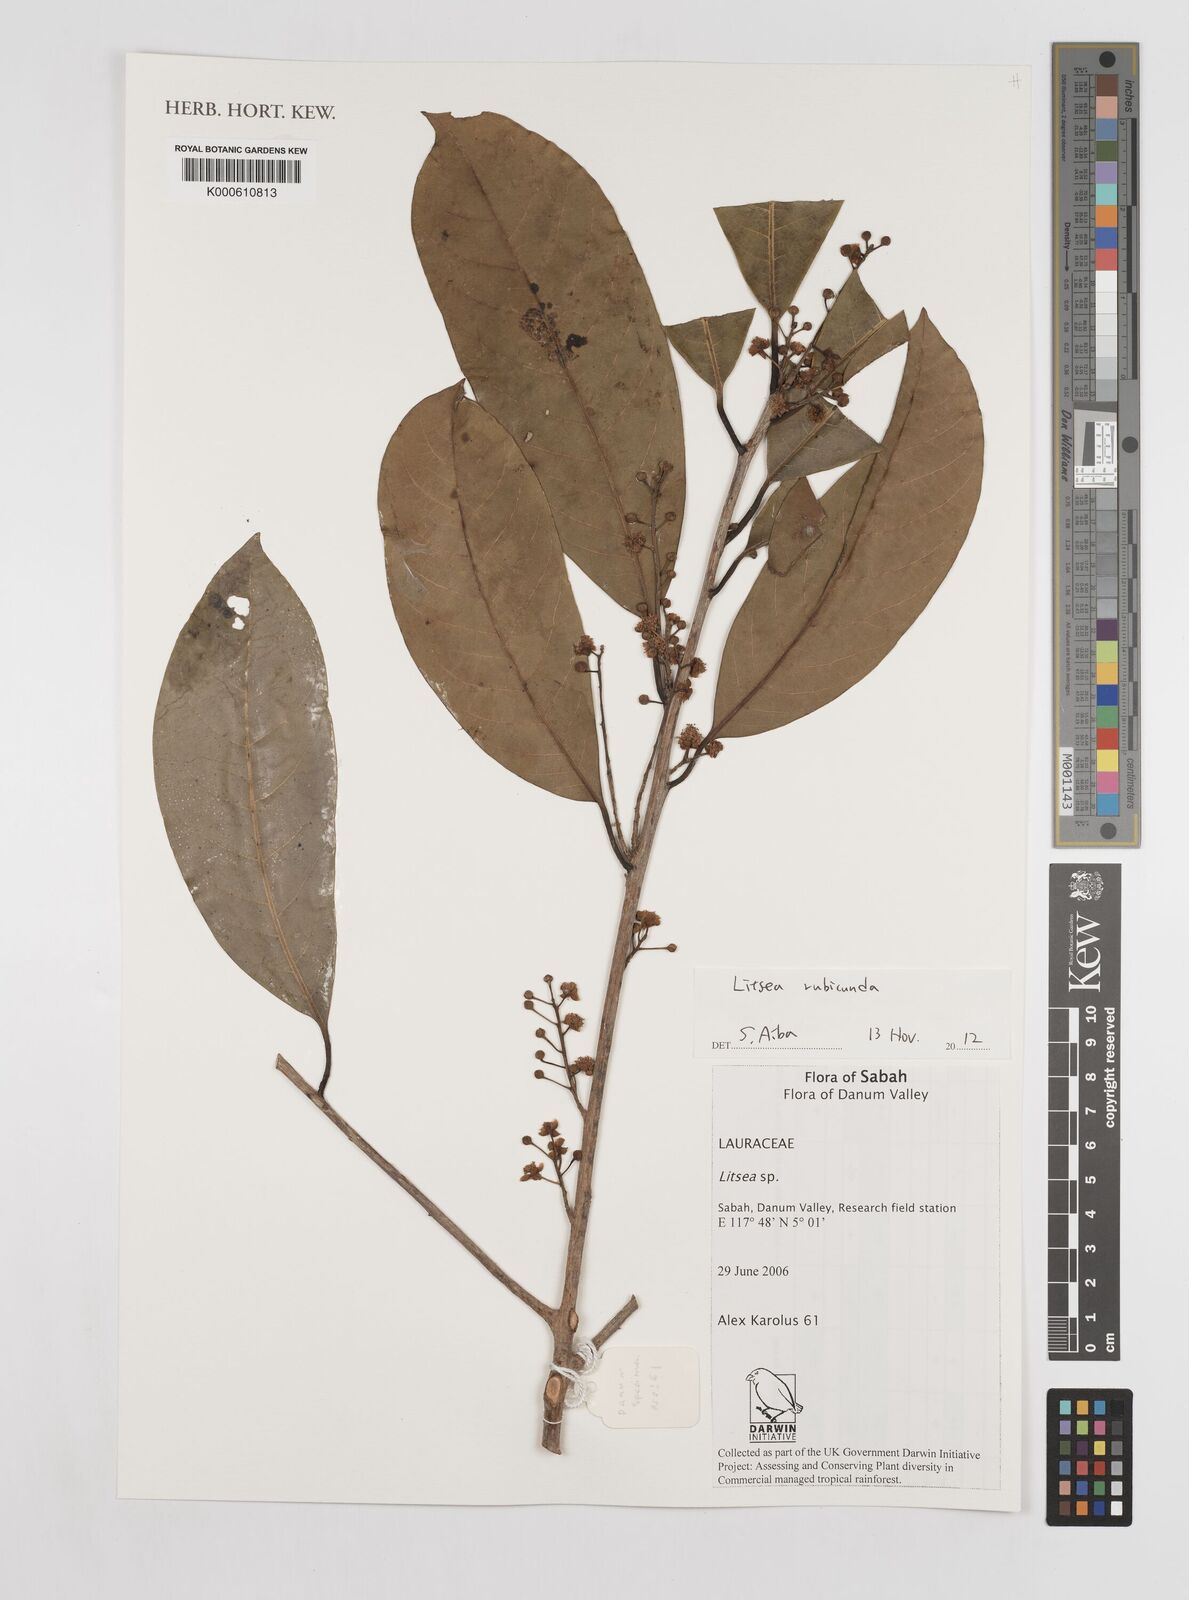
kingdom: Plantae
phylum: Tracheophyta
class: Magnoliopsida
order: Laurales
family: Lauraceae
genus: Litsea
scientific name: Litsea
